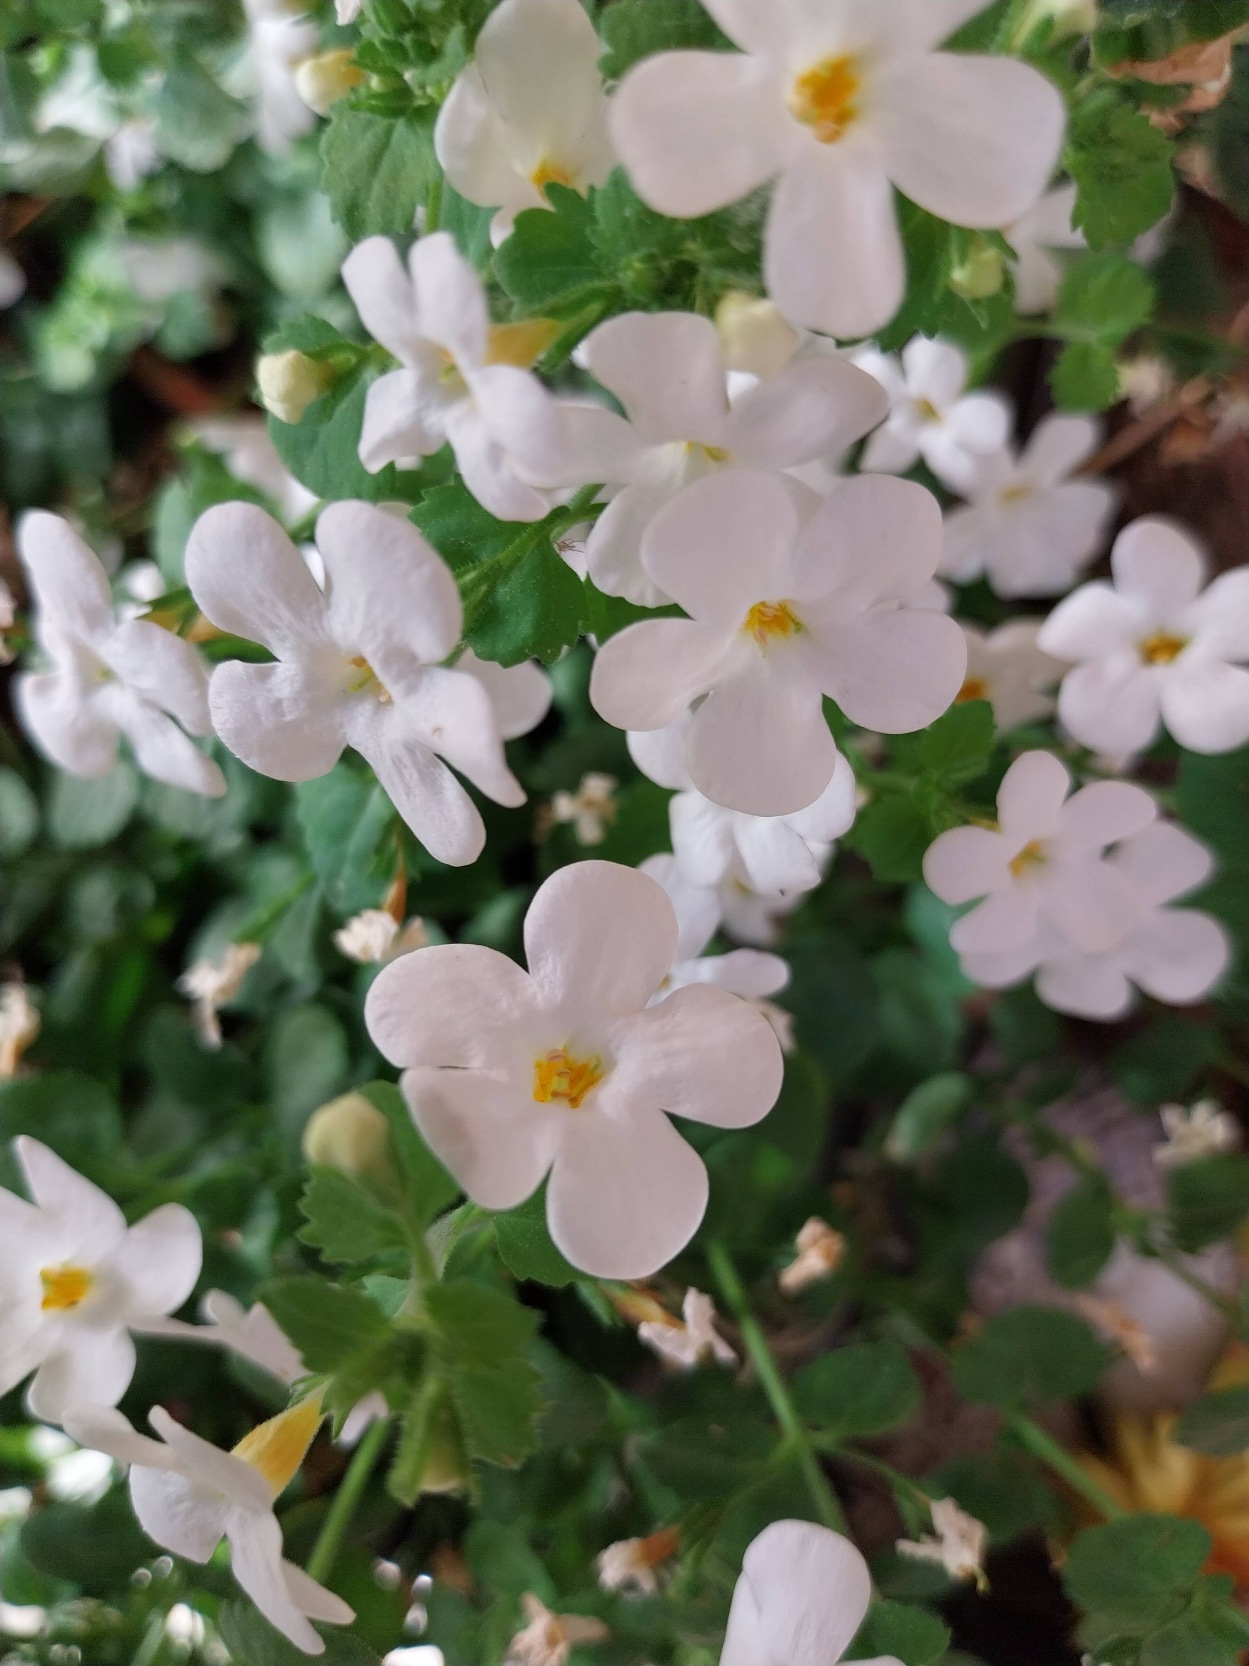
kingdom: Plantae
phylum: Tracheophyta
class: Magnoliopsida
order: Lamiales
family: Scrophulariaceae
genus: Chaenostoma
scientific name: Chaenostoma cordatum
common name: Snestjerne
